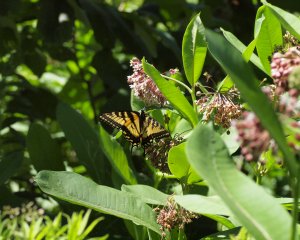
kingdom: Animalia
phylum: Arthropoda
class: Insecta
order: Lepidoptera
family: Papilionidae
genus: Pterourus
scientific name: Pterourus canadensis
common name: Canadian Tiger Swallowtail
